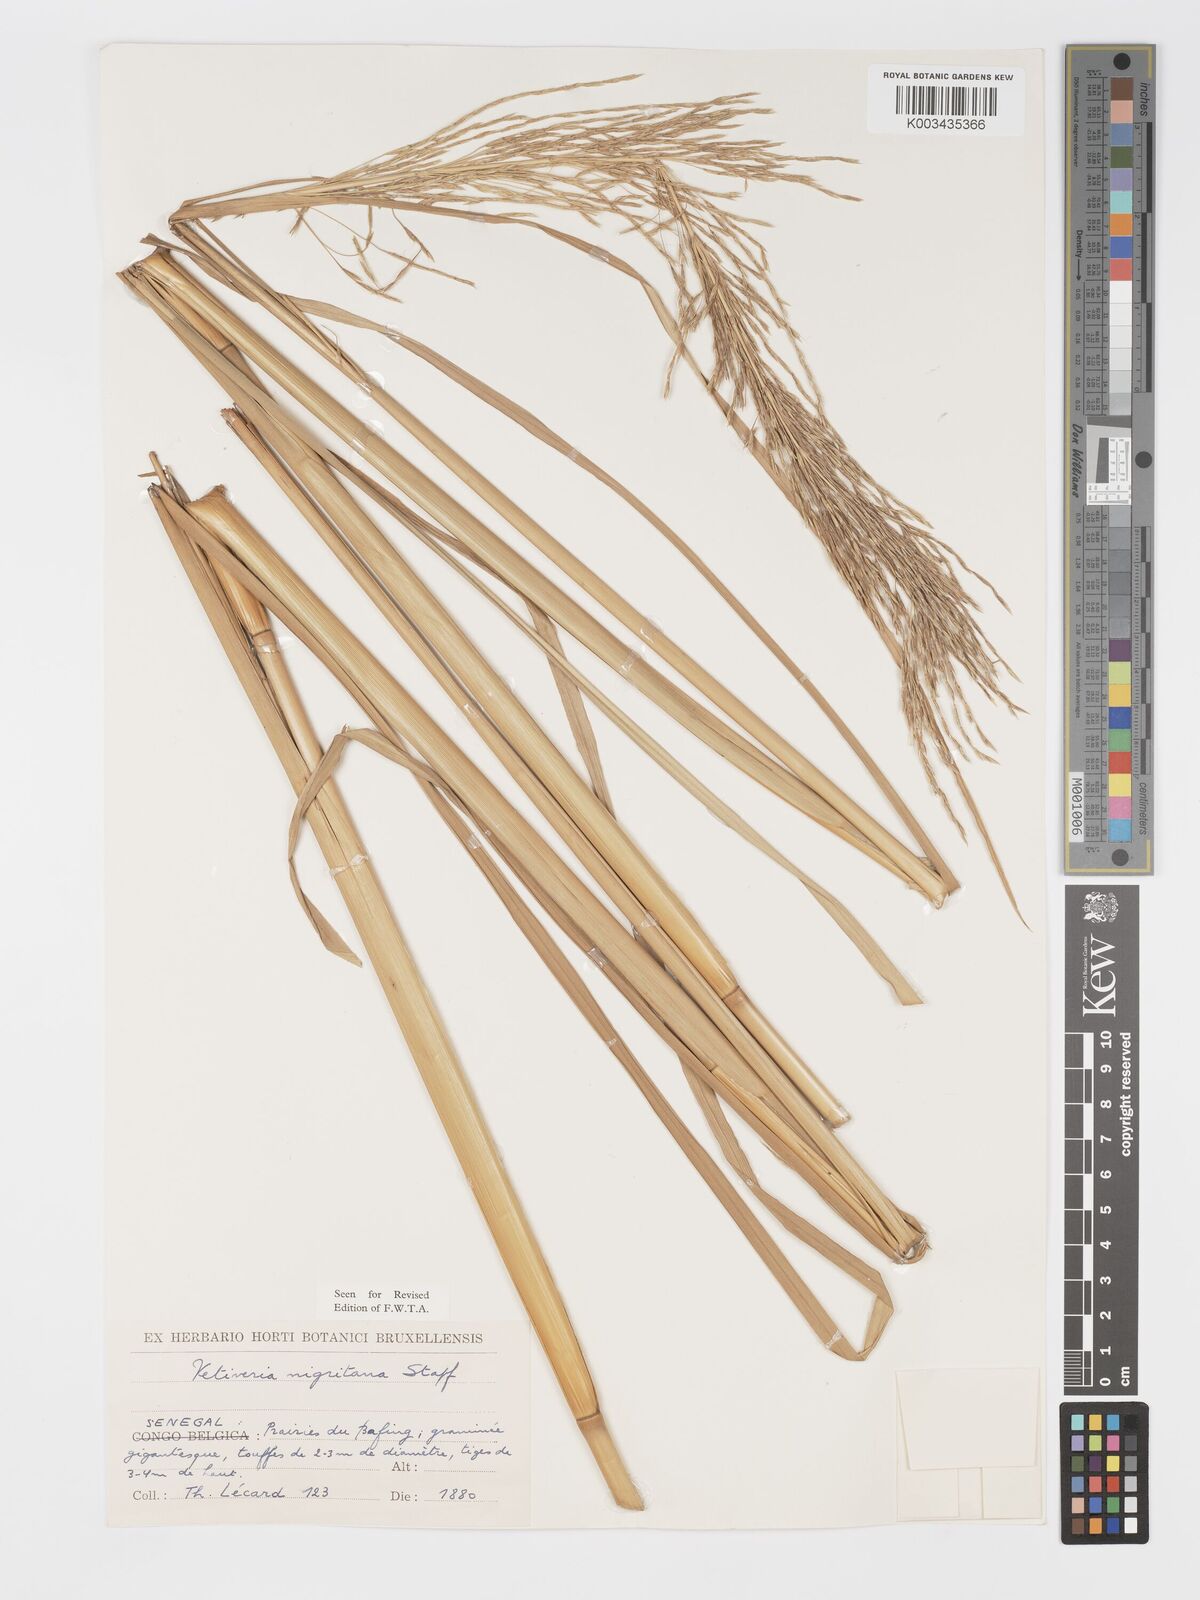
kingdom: Plantae
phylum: Tracheophyta
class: Liliopsida
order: Poales
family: Poaceae
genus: Chrysopogon
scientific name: Chrysopogon nigritanus
